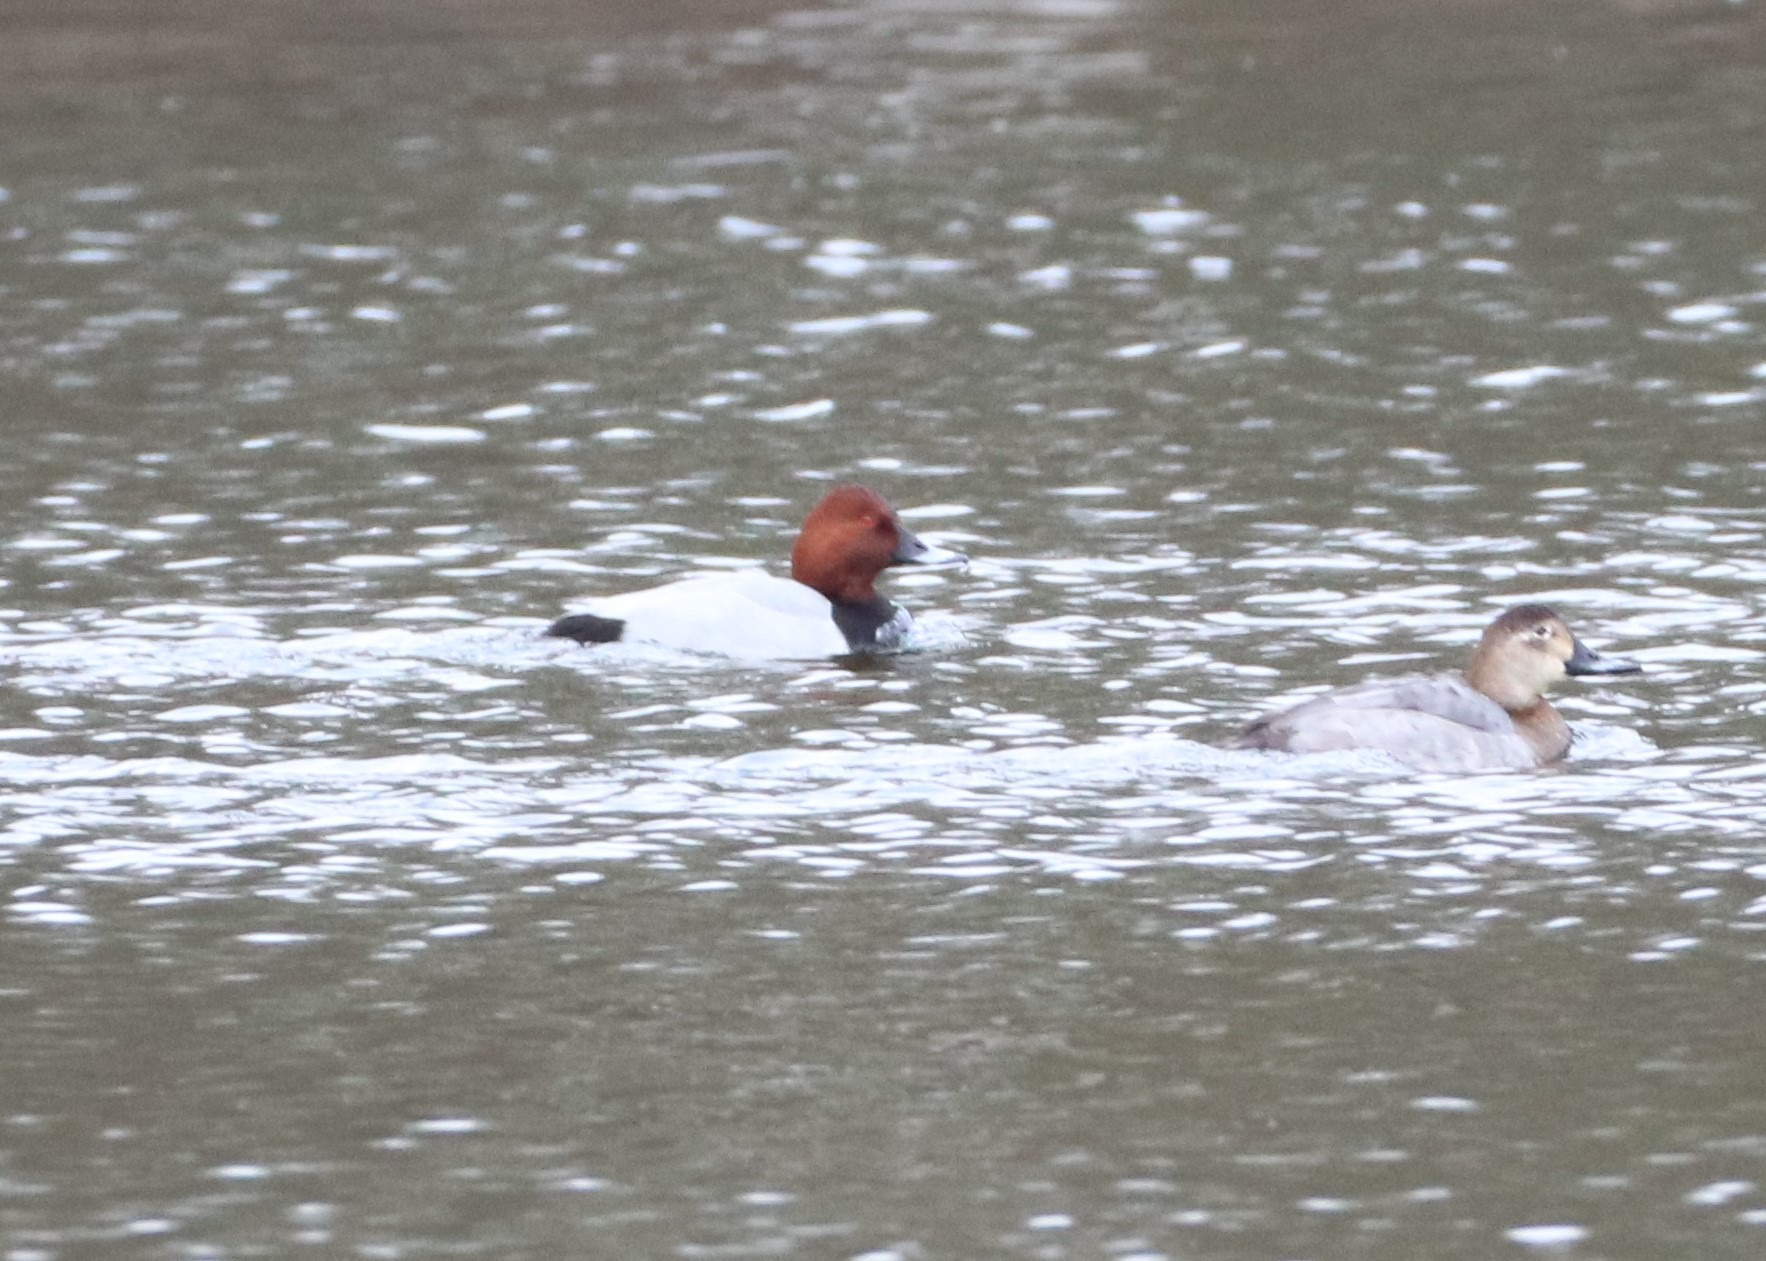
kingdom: Animalia
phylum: Chordata
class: Aves
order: Anseriformes
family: Anatidae
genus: Aythya
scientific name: Aythya ferina
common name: Taffeland
